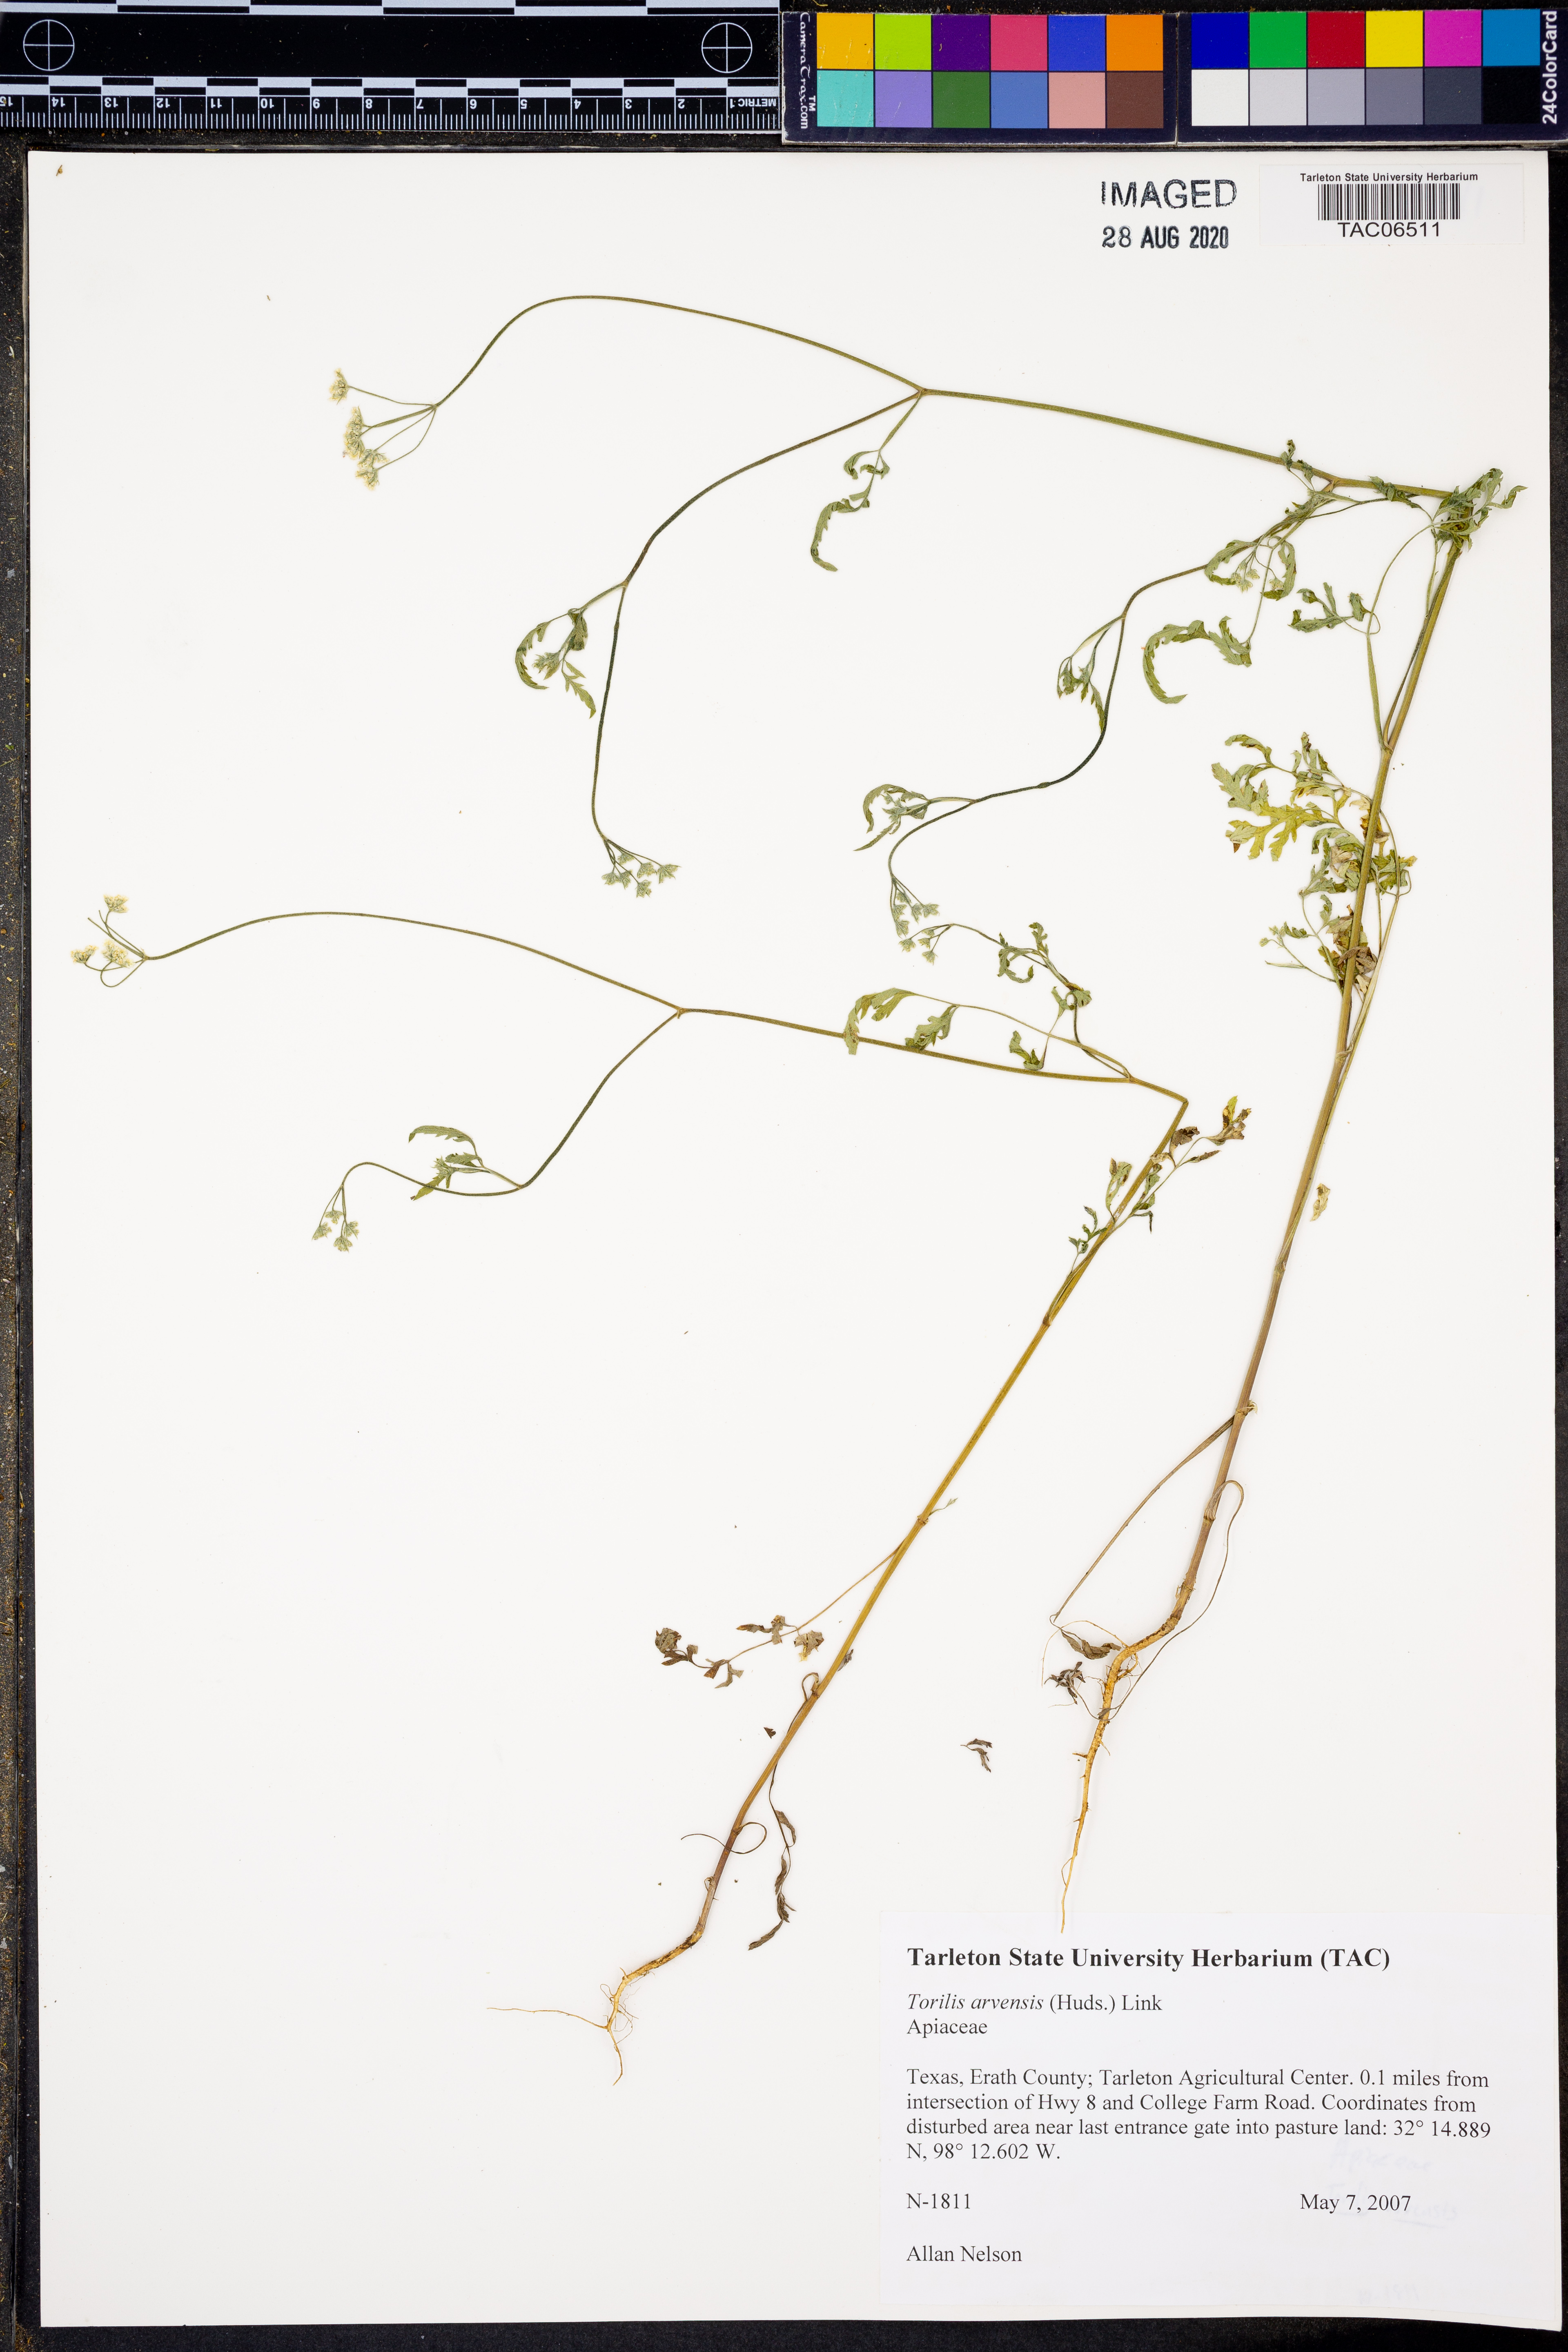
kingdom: Plantae
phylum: Tracheophyta
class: Magnoliopsida
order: Apiales
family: Apiaceae
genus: Torilis
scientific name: Torilis arvensis
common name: Spreading hedge-parsley
